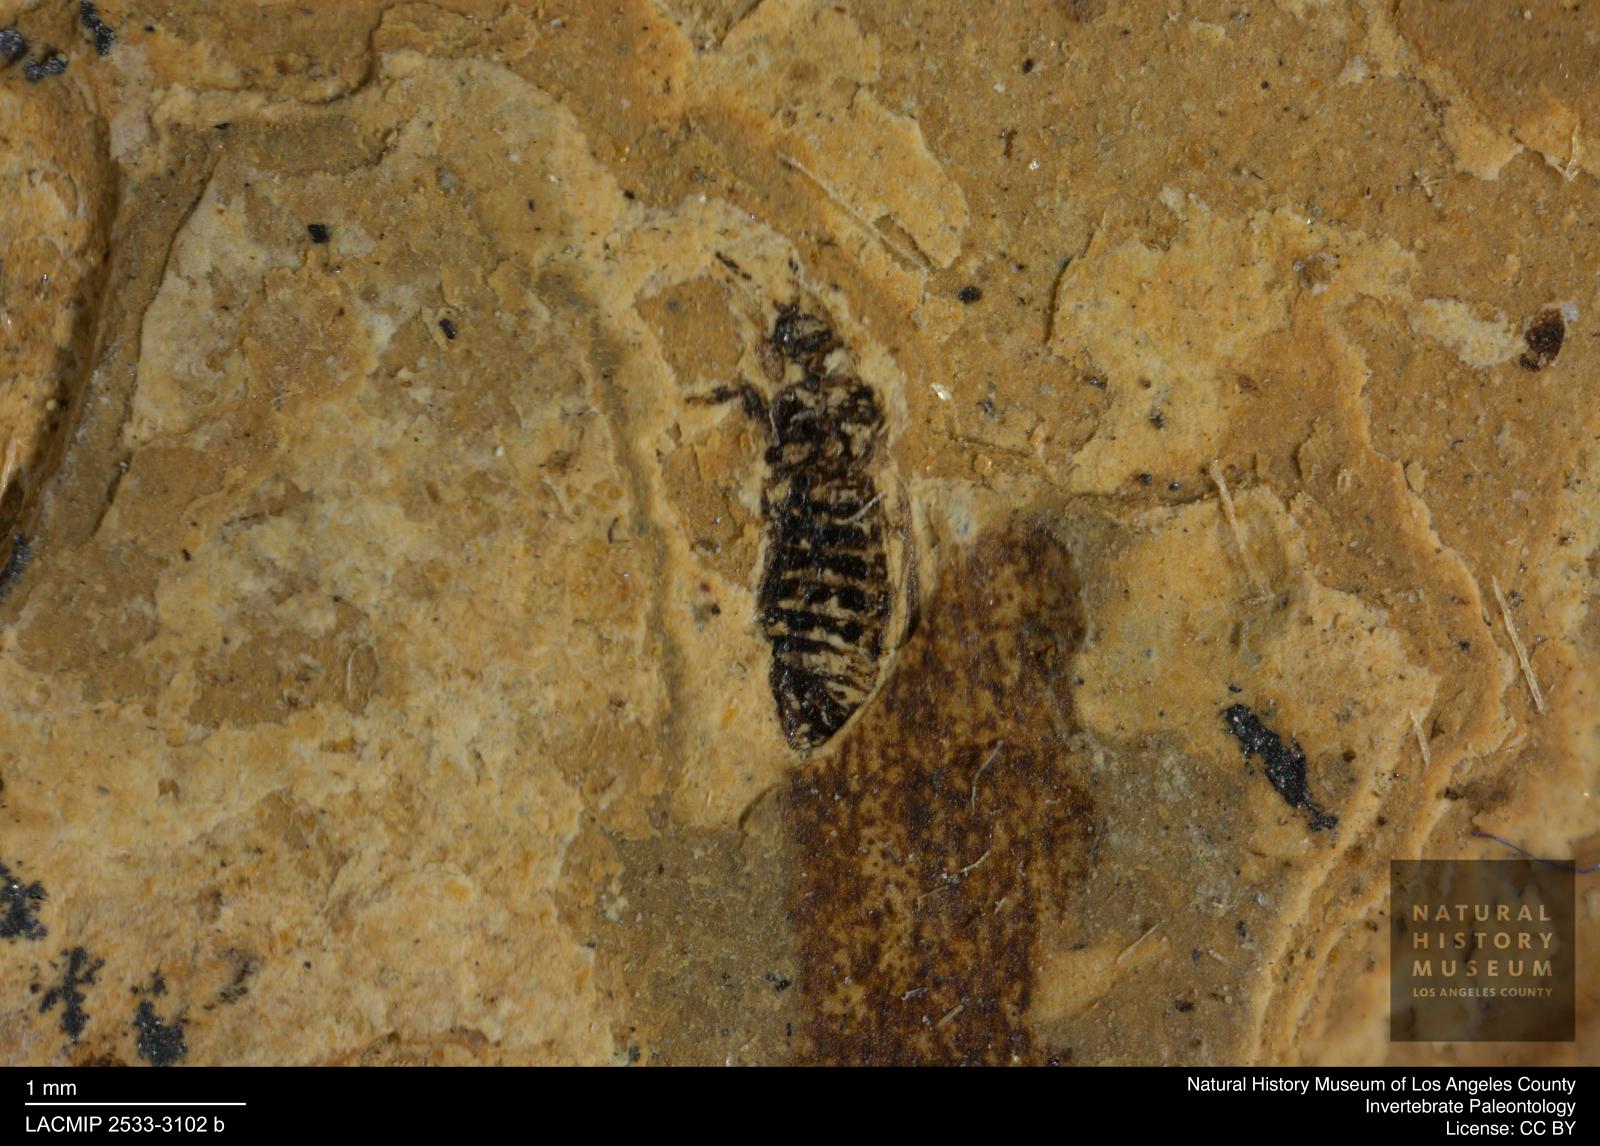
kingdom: Animalia
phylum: Arthropoda
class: Insecta
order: Thysanoptera
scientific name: Thysanoptera
